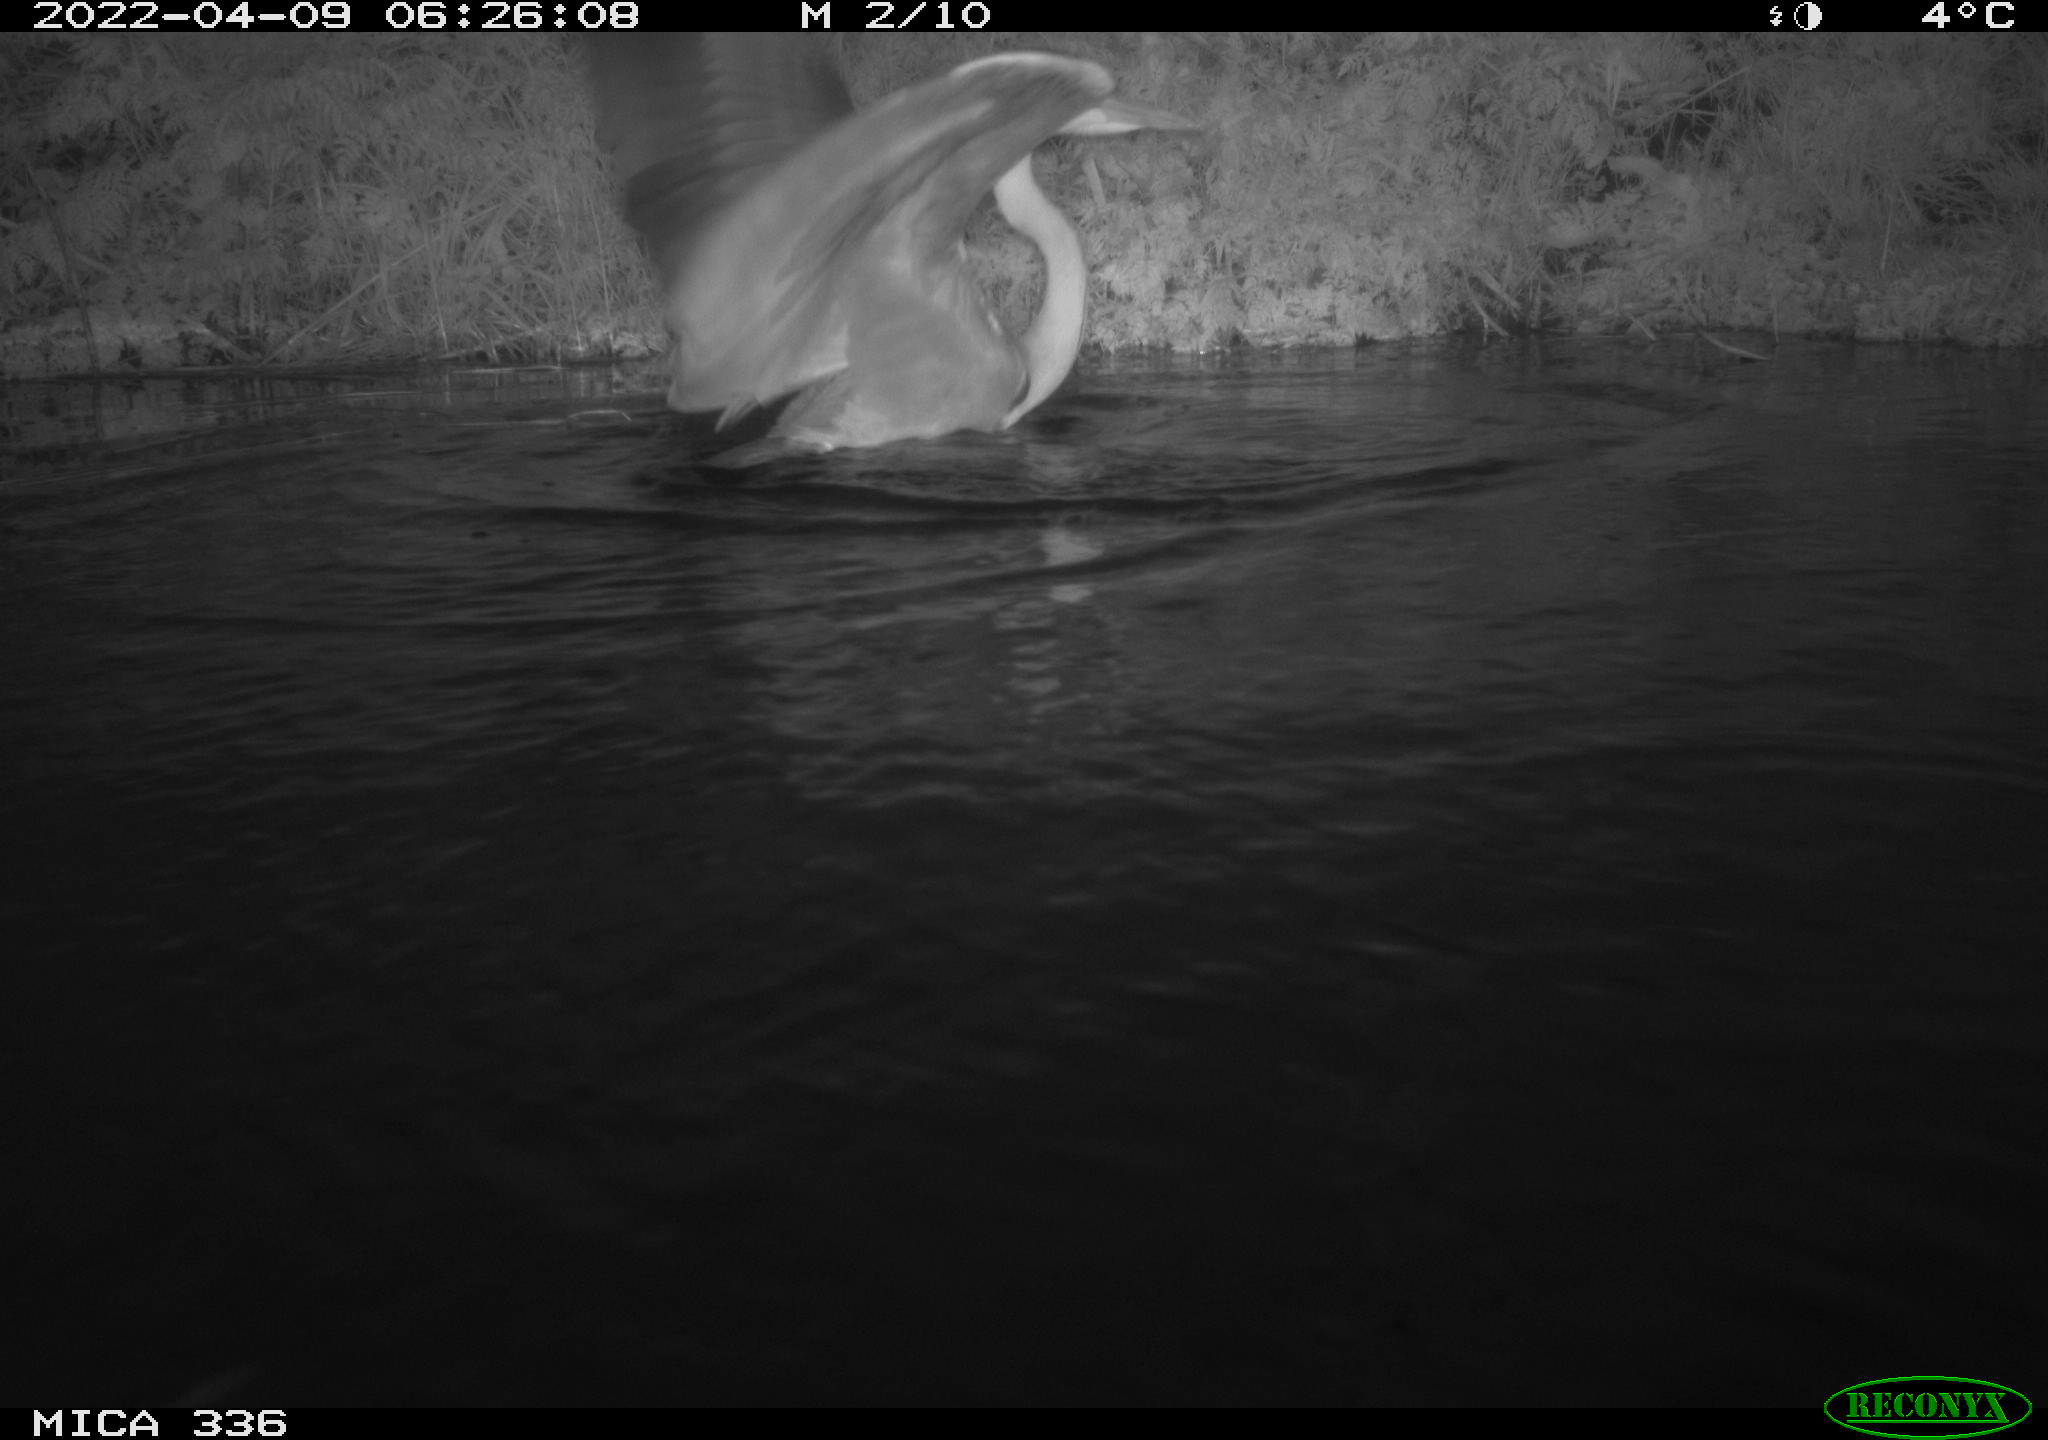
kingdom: Animalia
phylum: Chordata
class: Aves
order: Pelecaniformes
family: Ardeidae
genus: Ardea
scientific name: Ardea cinerea
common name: Grey heron
